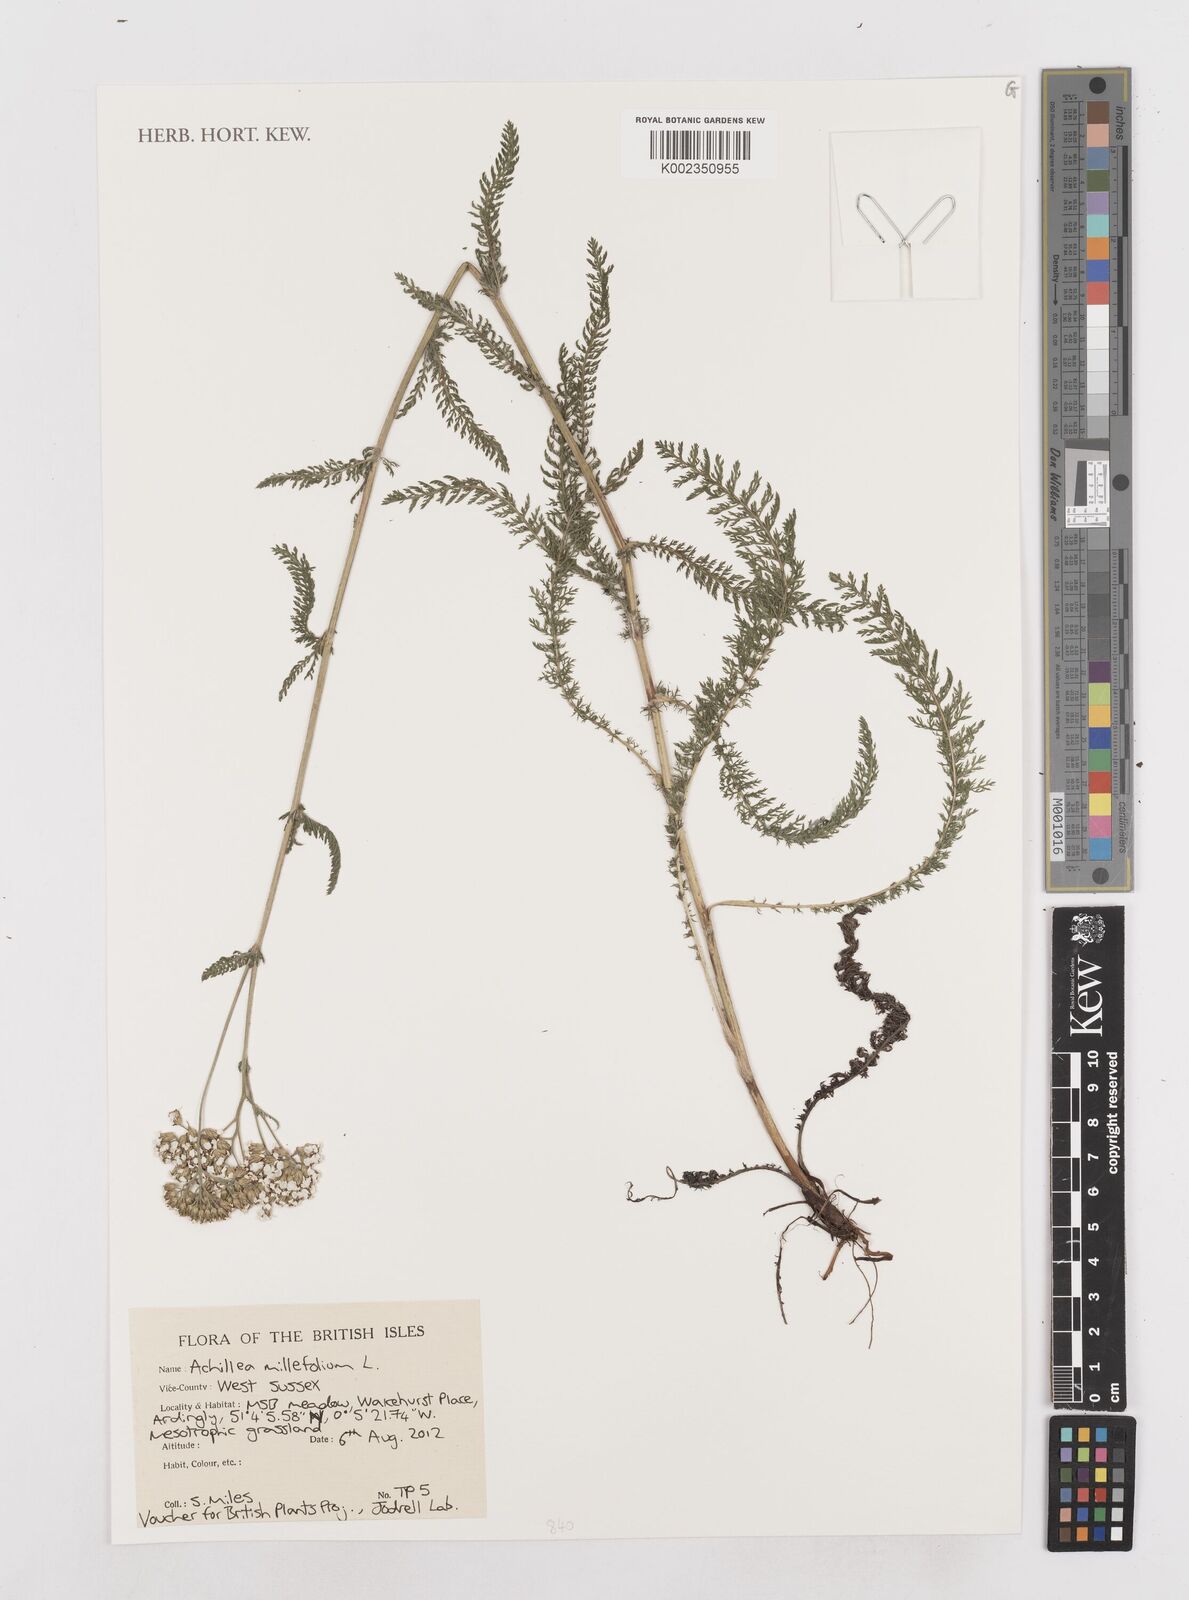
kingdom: Plantae
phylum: Tracheophyta
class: Magnoliopsida
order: Asterales
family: Asteraceae
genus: Achillea
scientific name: Achillea millefolium
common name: Yarrow
